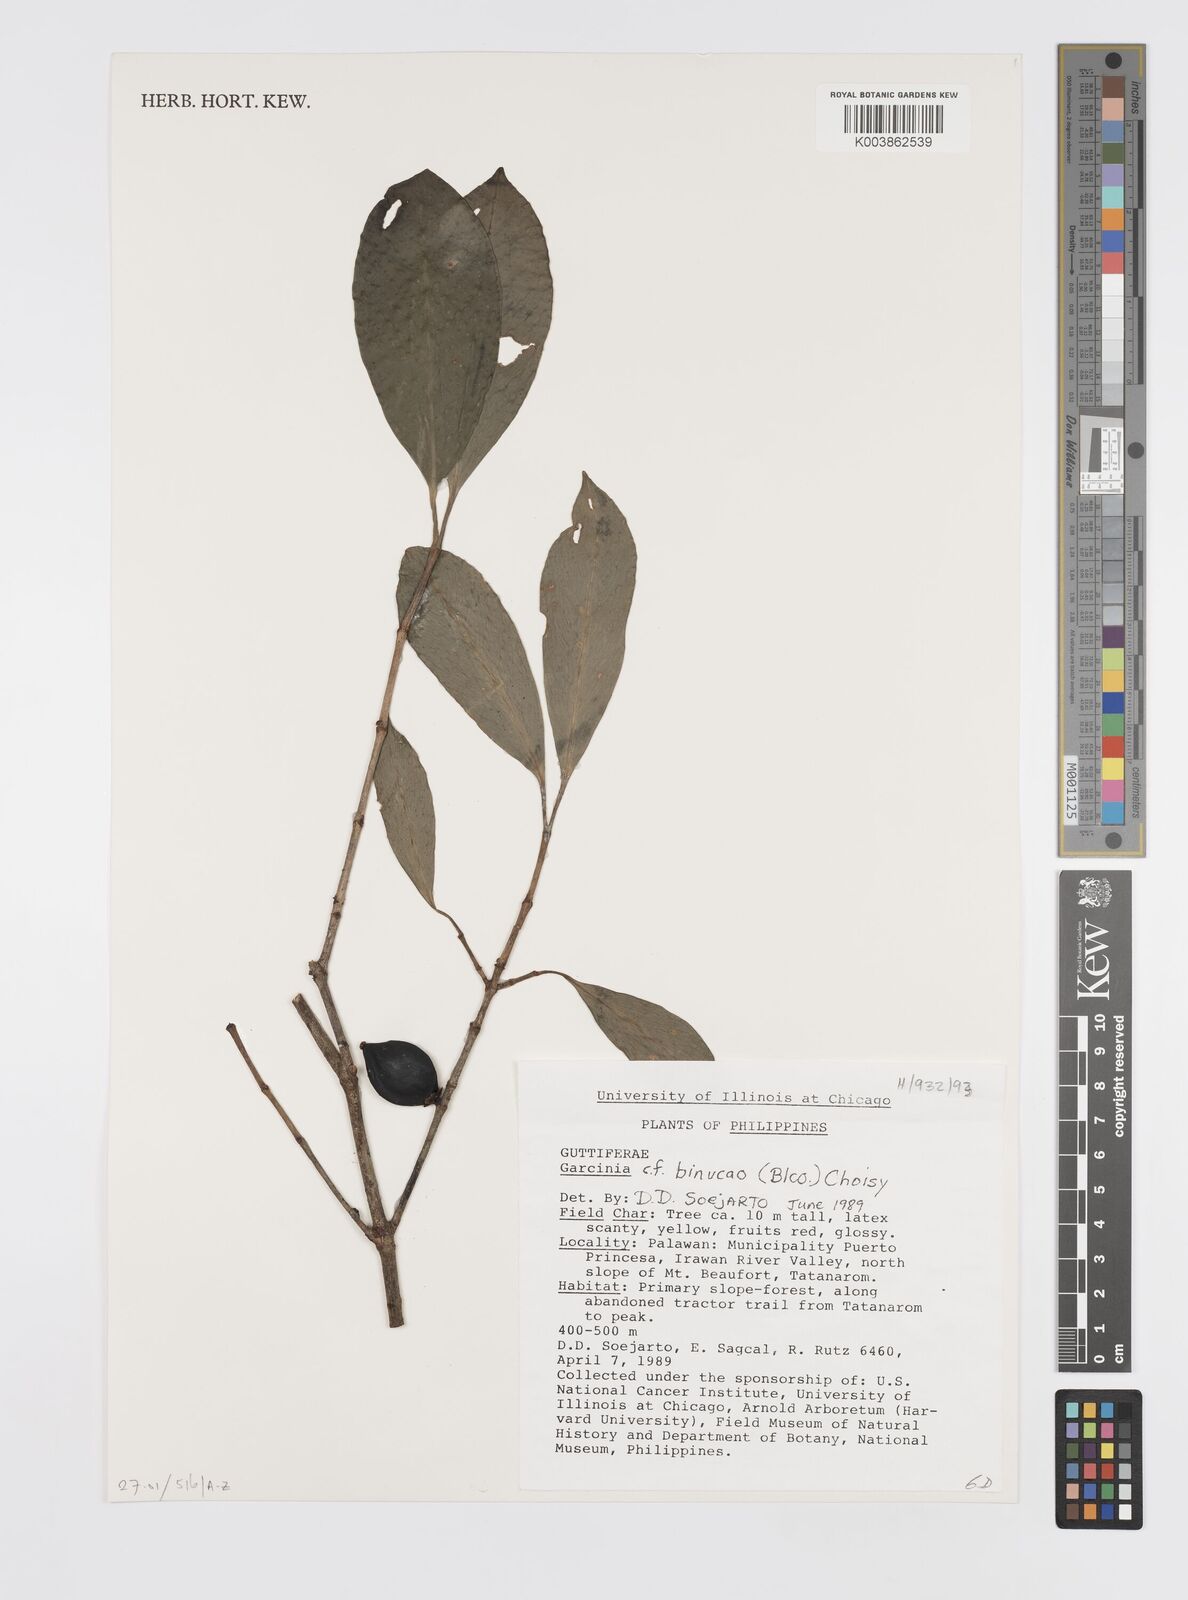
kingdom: Plantae
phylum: Tracheophyta
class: Magnoliopsida
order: Malpighiales
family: Clusiaceae
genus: Garcinia
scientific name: Garcinia binucao
